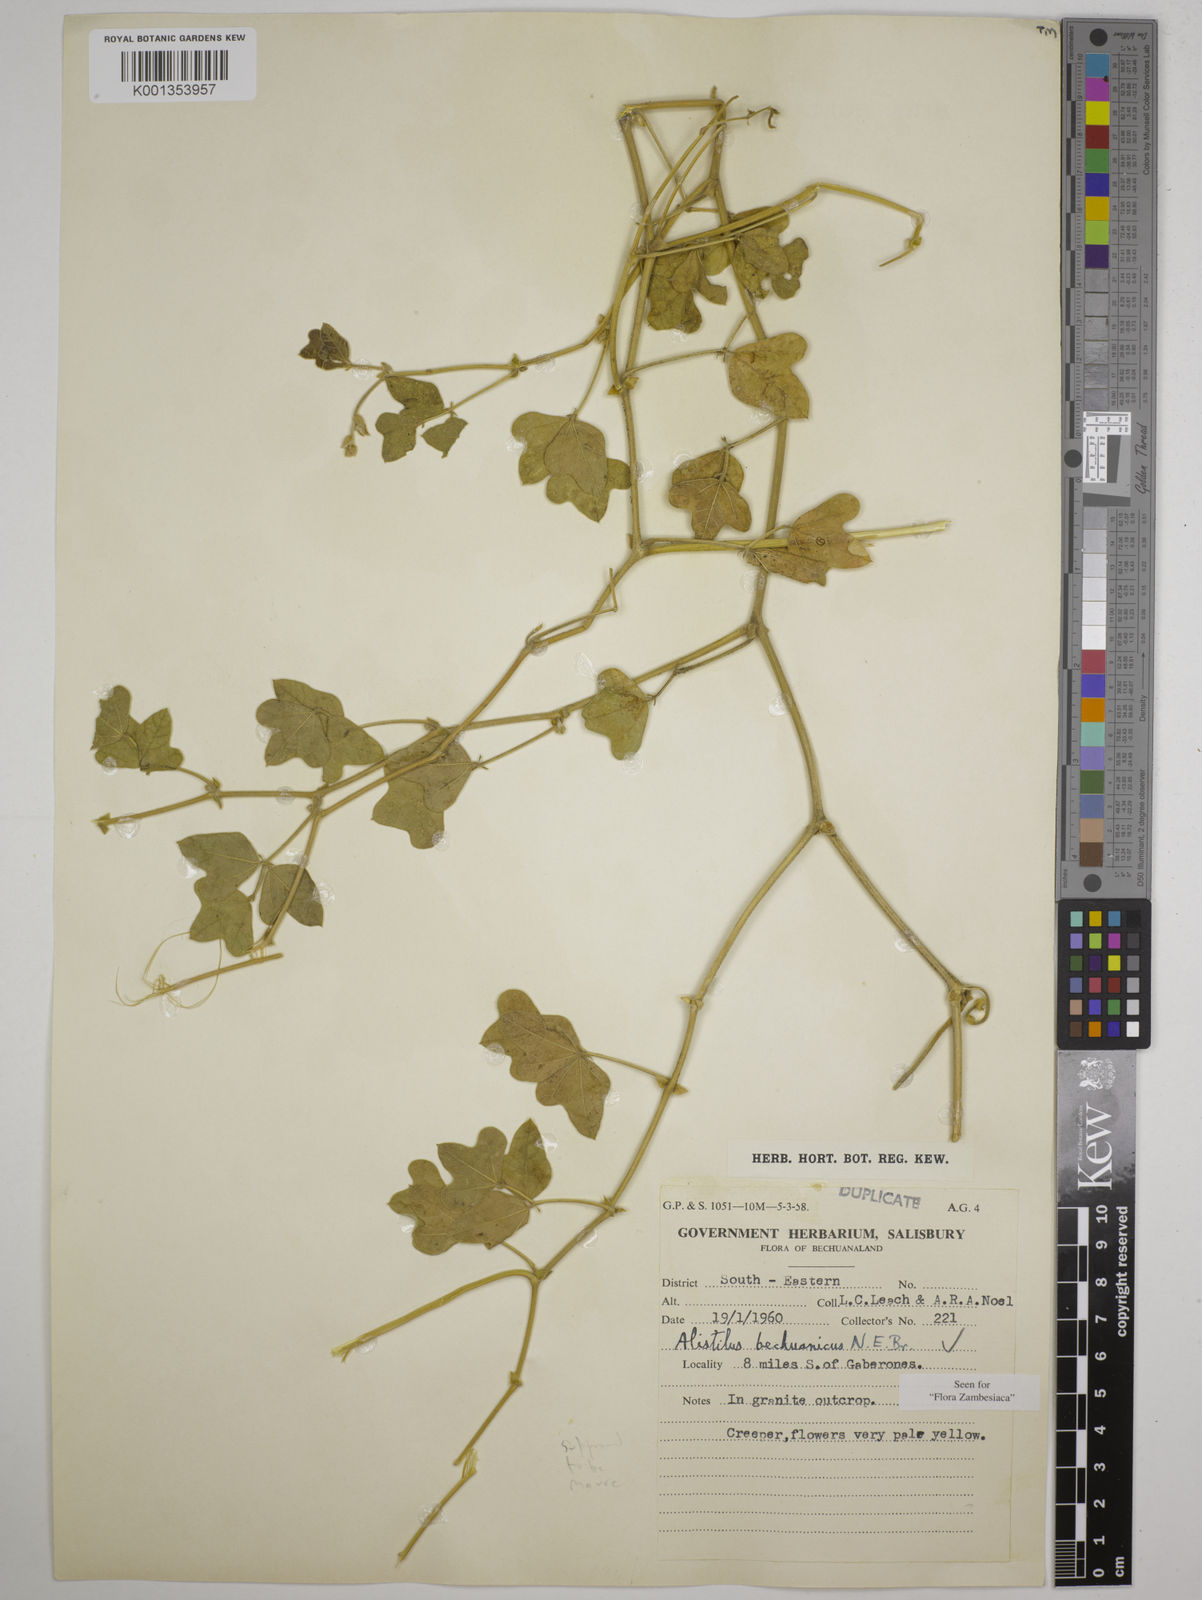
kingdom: Plantae
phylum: Tracheophyta
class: Magnoliopsida
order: Fabales
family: Fabaceae
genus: Alistilus
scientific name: Alistilus bechuanicus
